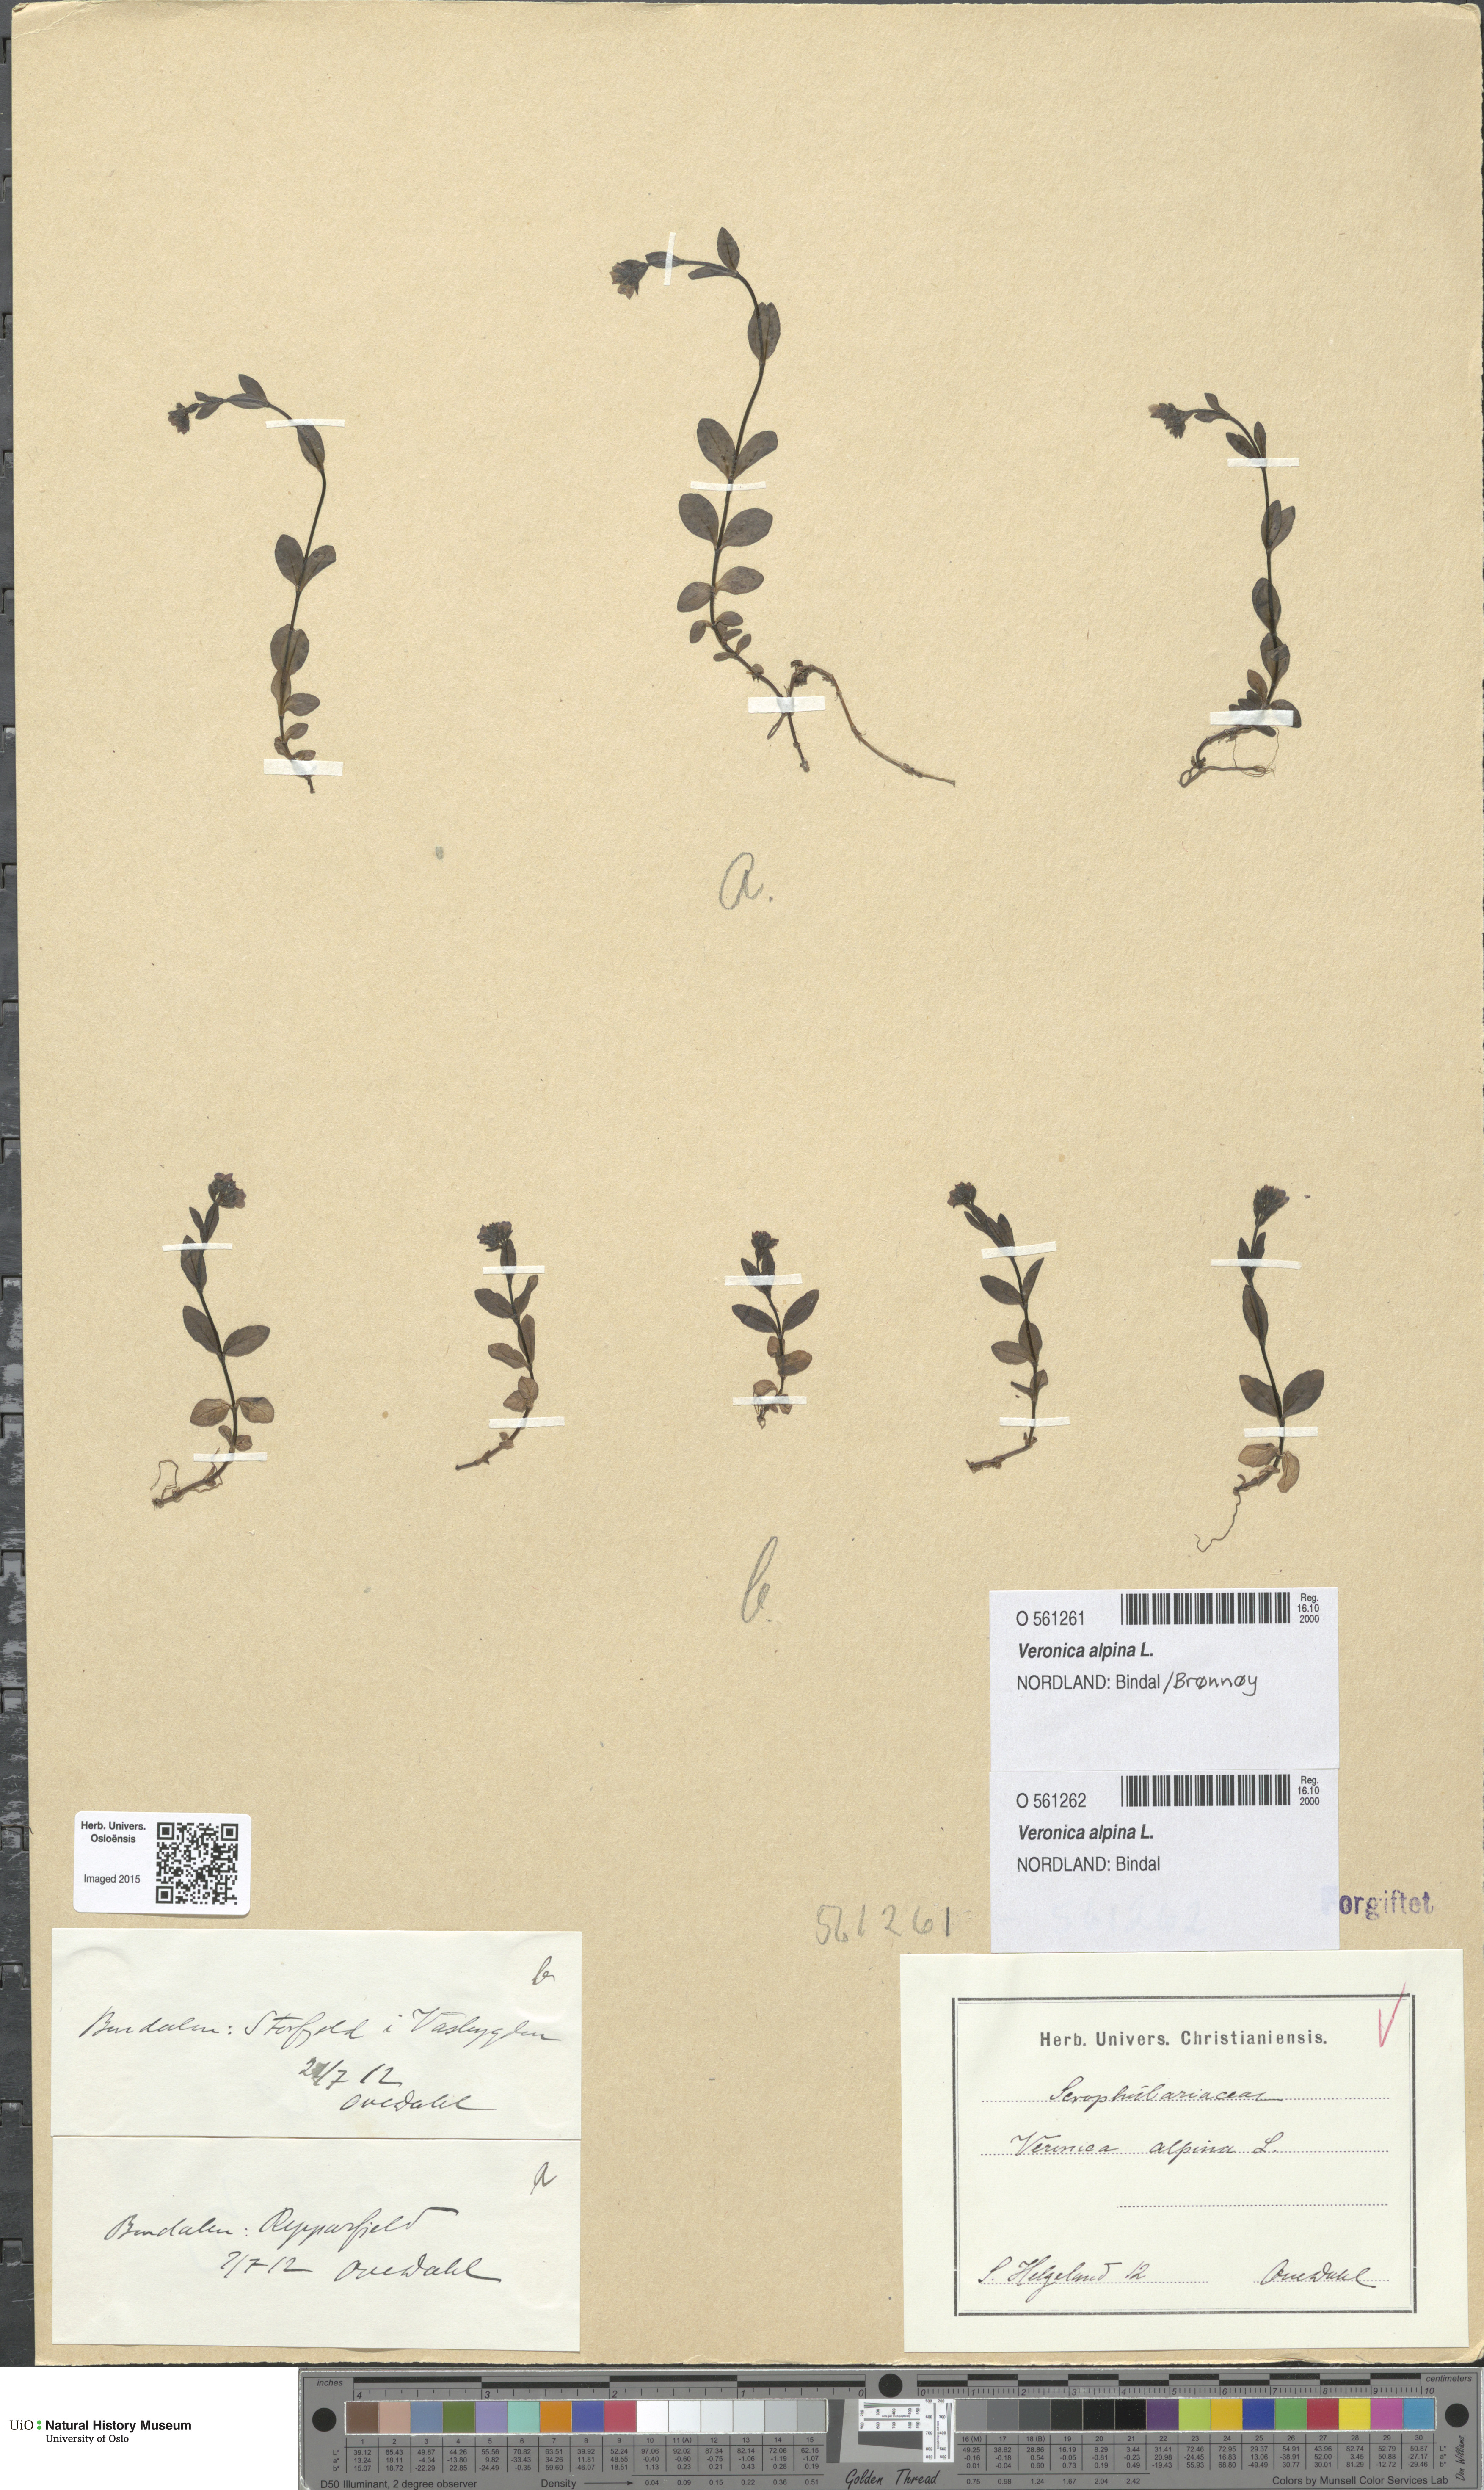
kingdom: Plantae
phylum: Tracheophyta
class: Magnoliopsida
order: Lamiales
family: Plantaginaceae
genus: Veronica
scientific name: Veronica alpina
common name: Alpine speedwell
